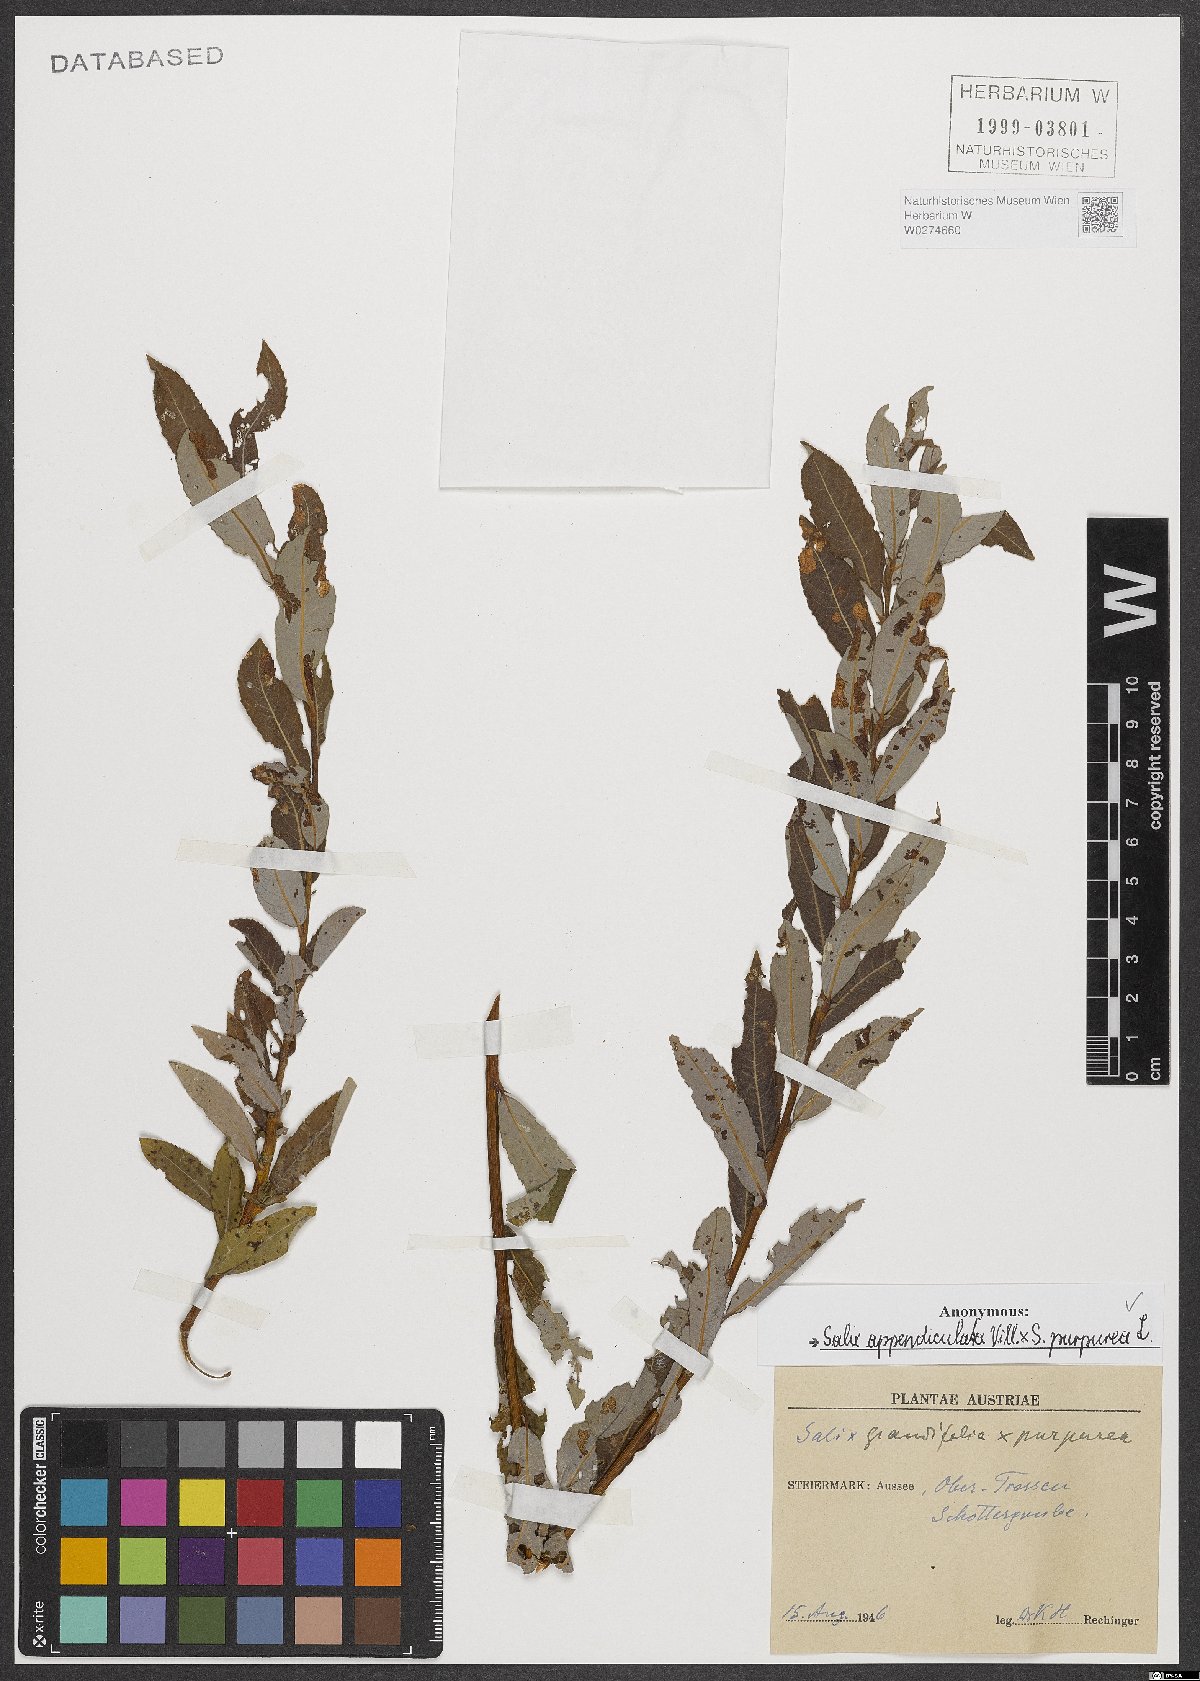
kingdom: Plantae
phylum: Tracheophyta
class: Magnoliopsida
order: Malpighiales
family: Salicaceae
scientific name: Salicaceae
